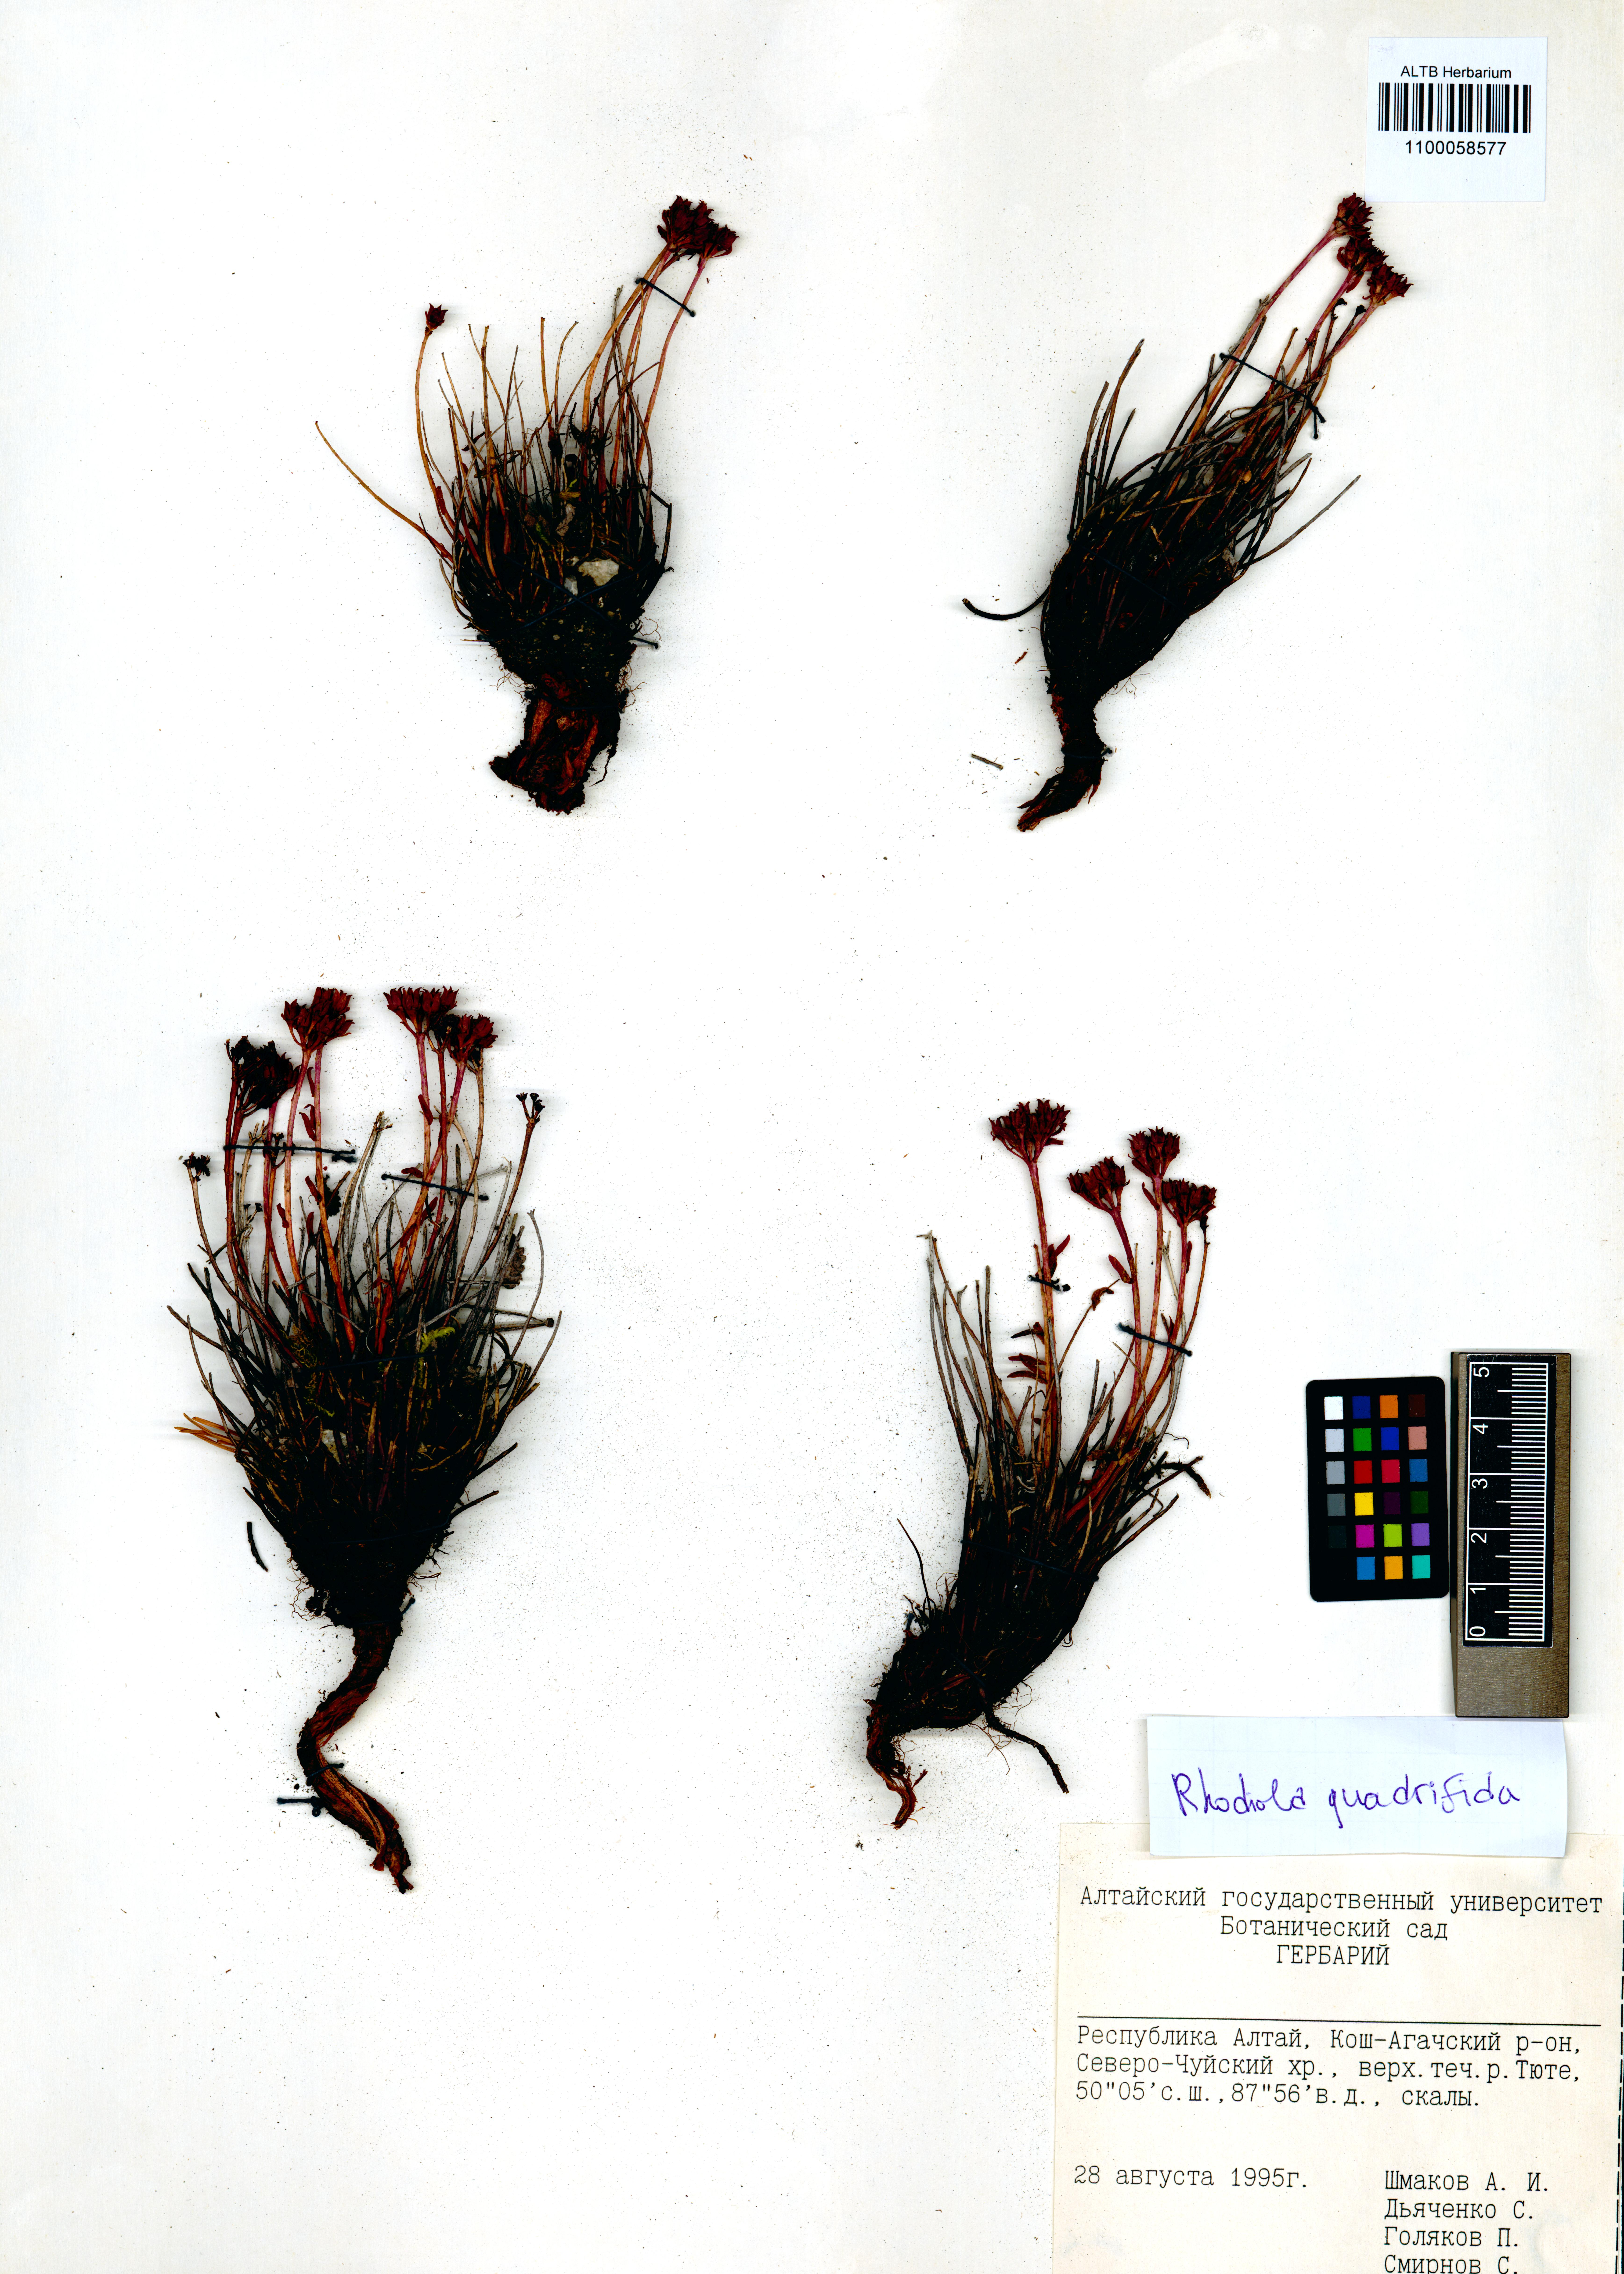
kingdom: Plantae
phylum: Tracheophyta
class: Magnoliopsida
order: Saxifragales
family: Crassulaceae
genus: Rhodiola
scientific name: Rhodiola quadrifida
